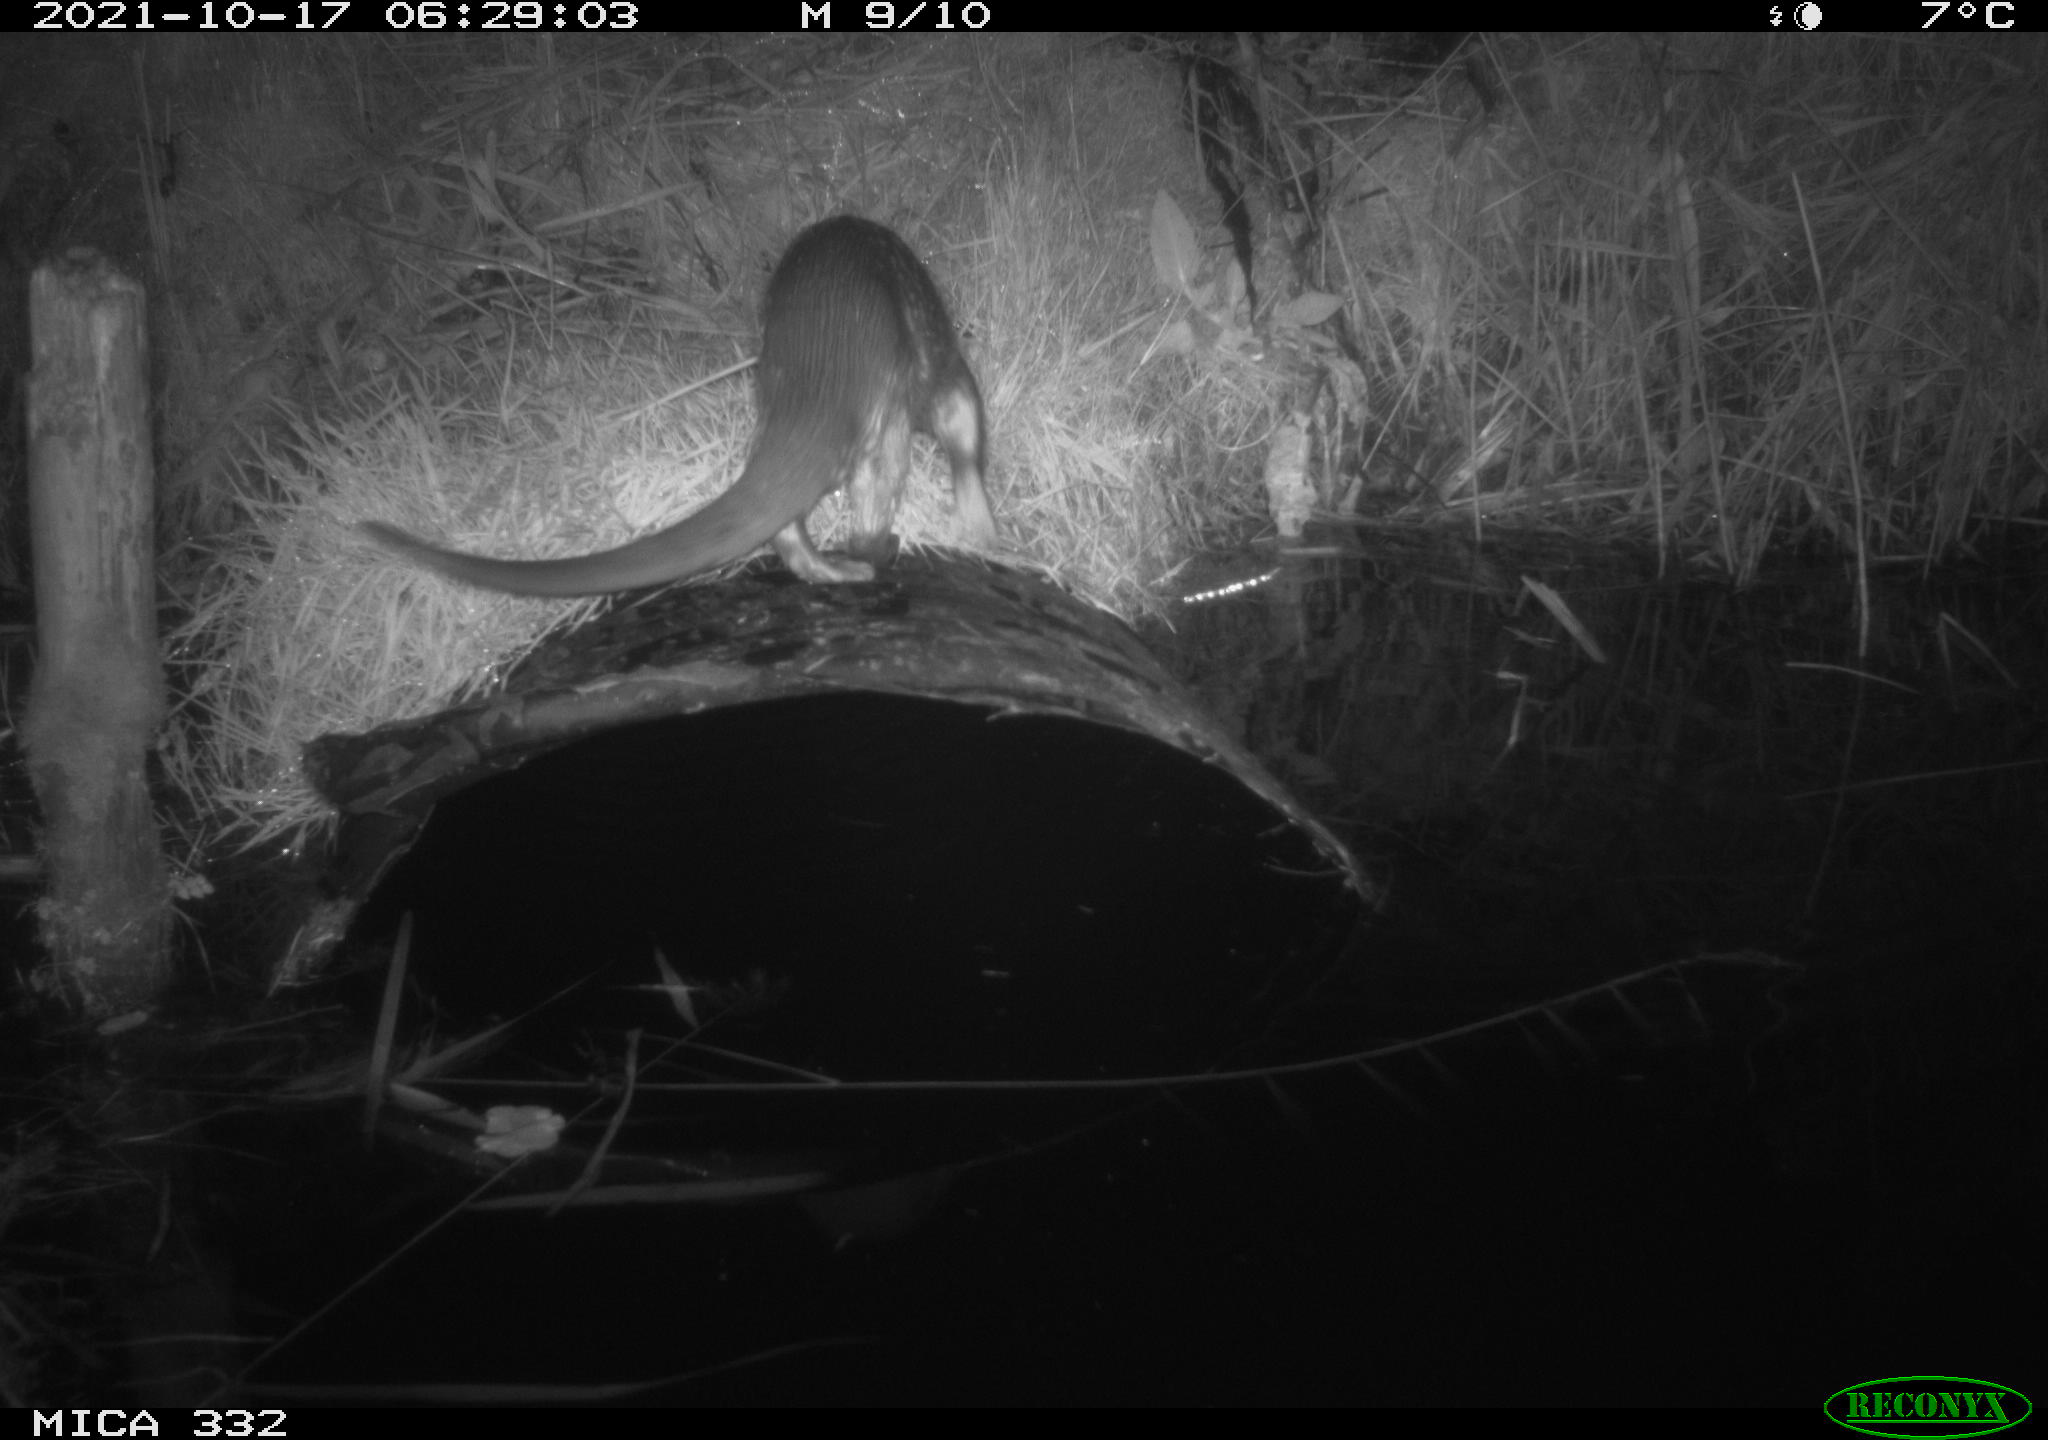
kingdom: Animalia
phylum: Chordata
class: Mammalia
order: Carnivora
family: Mustelidae
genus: Lutra
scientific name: Lutra lutra
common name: European otter
